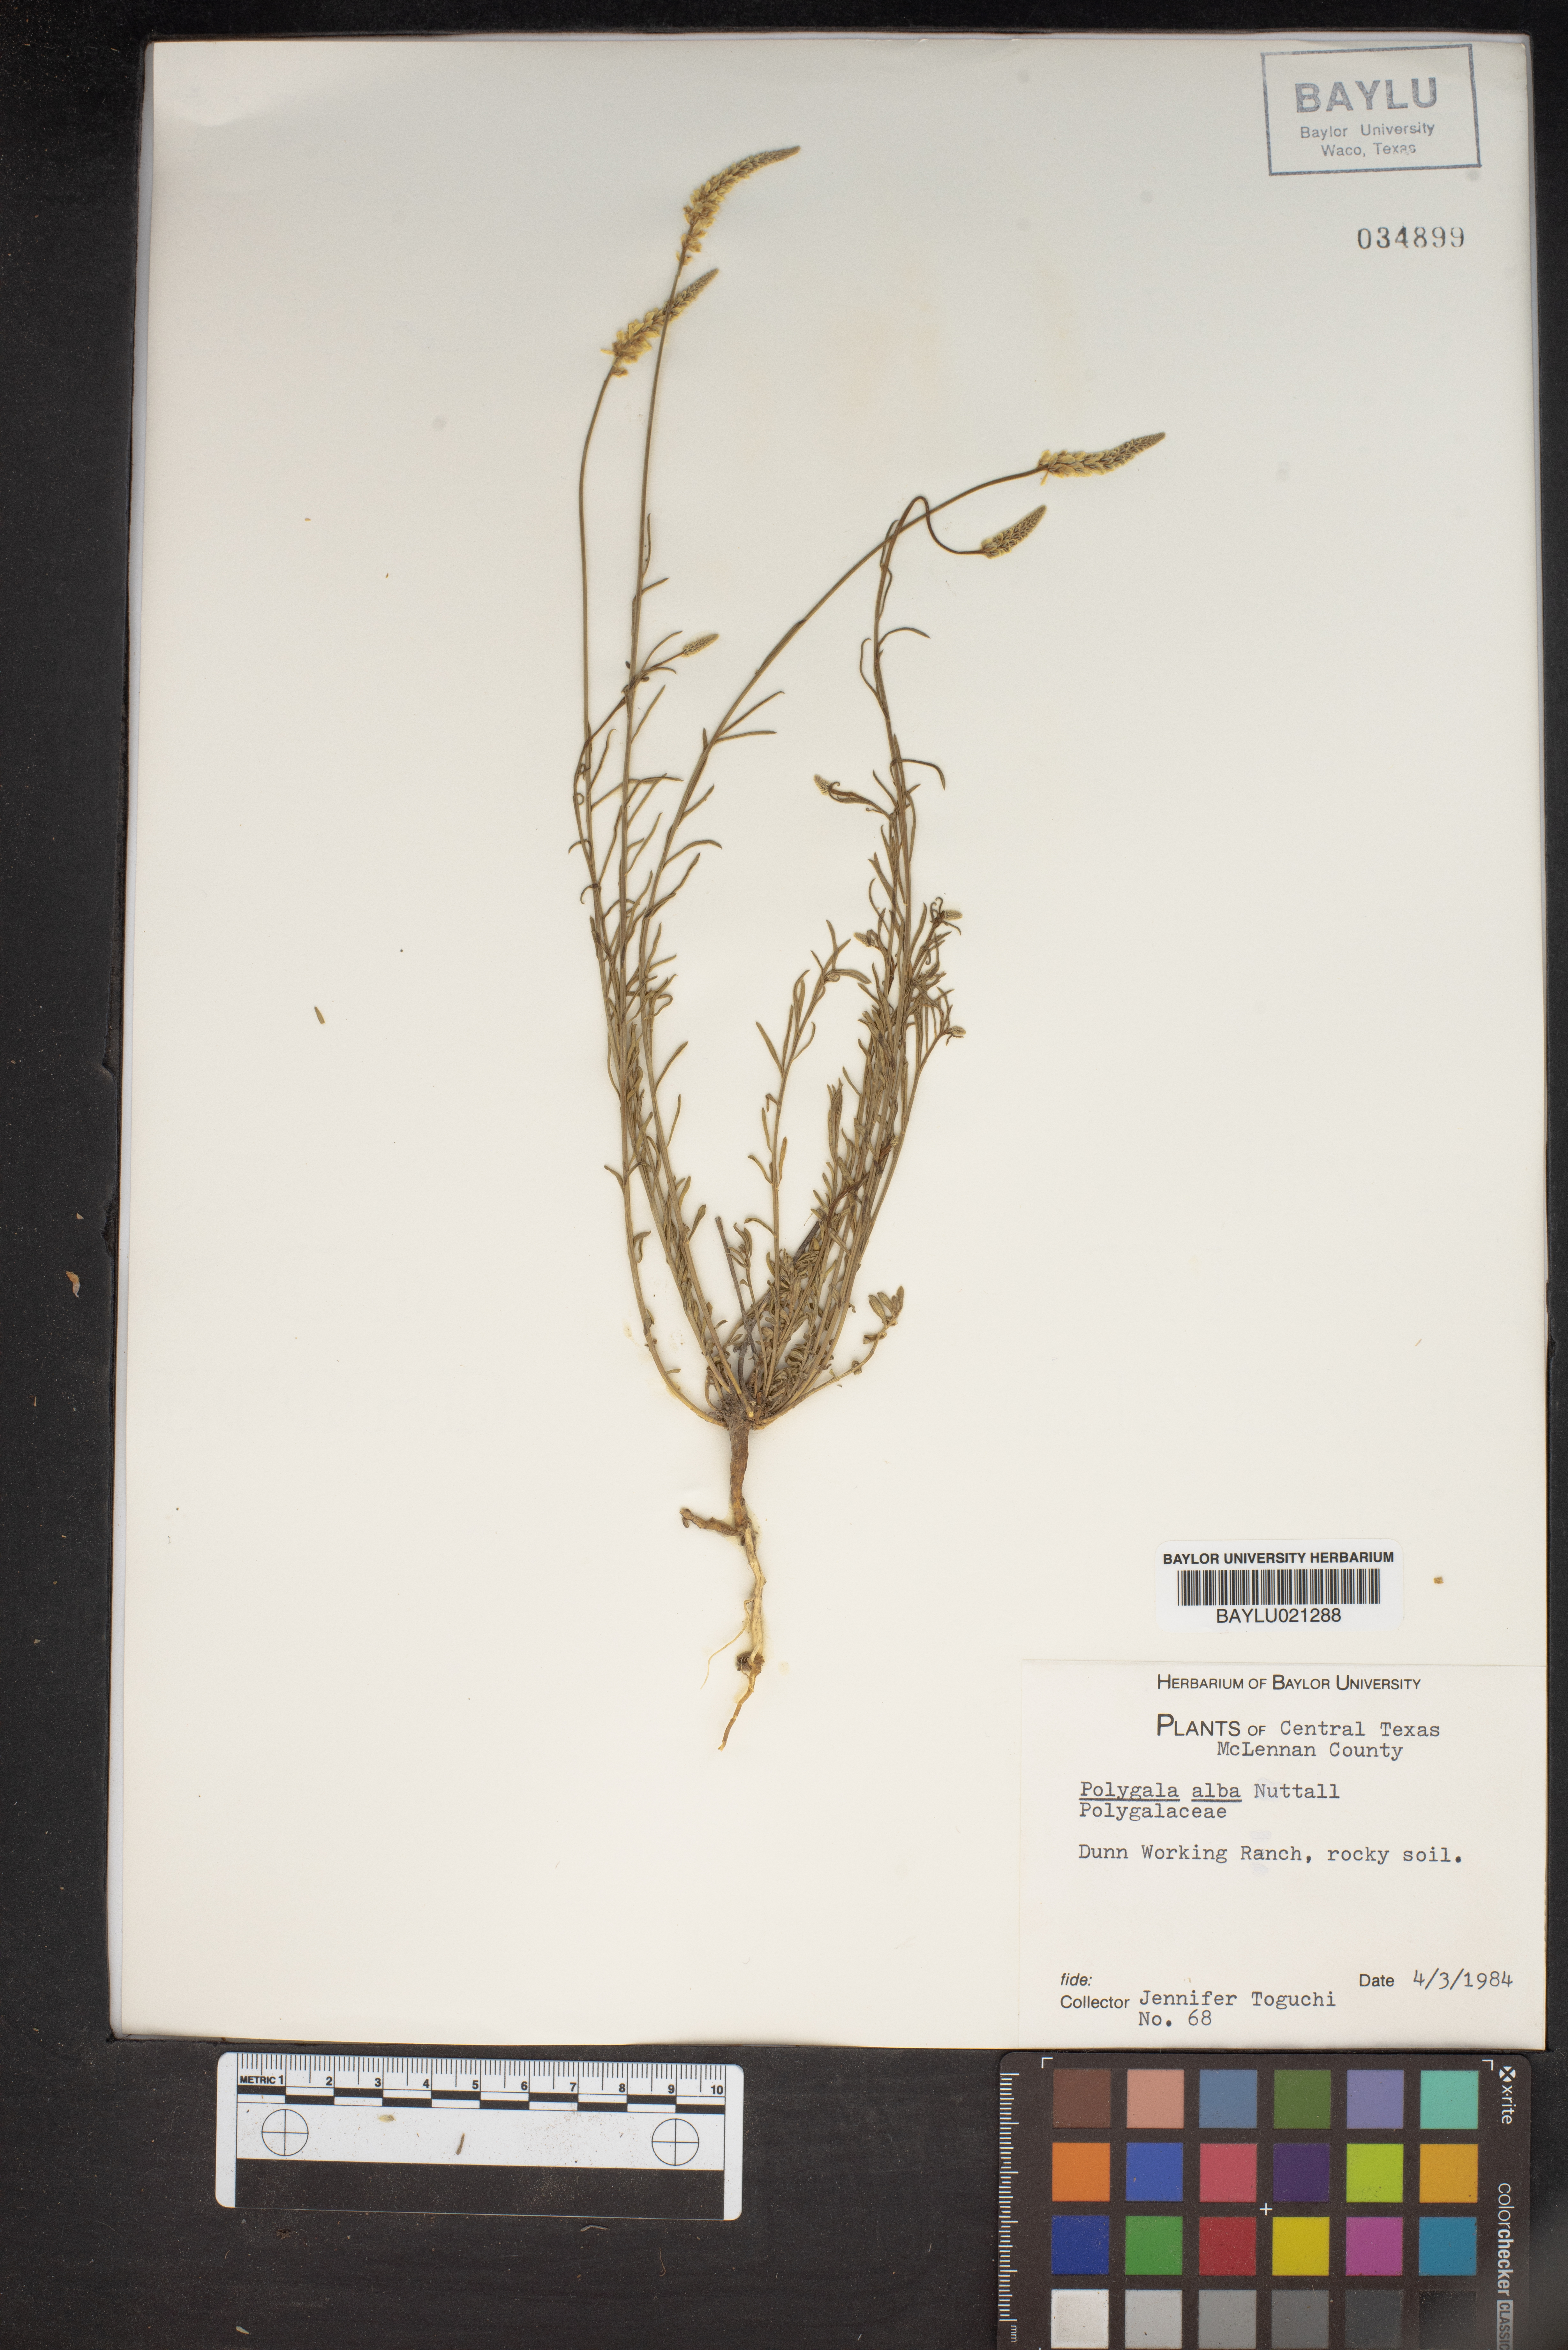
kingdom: Plantae
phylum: Tracheophyta
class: Magnoliopsida
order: Fabales
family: Polygalaceae
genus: Polygala
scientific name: Polygala alba
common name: White milkwort
